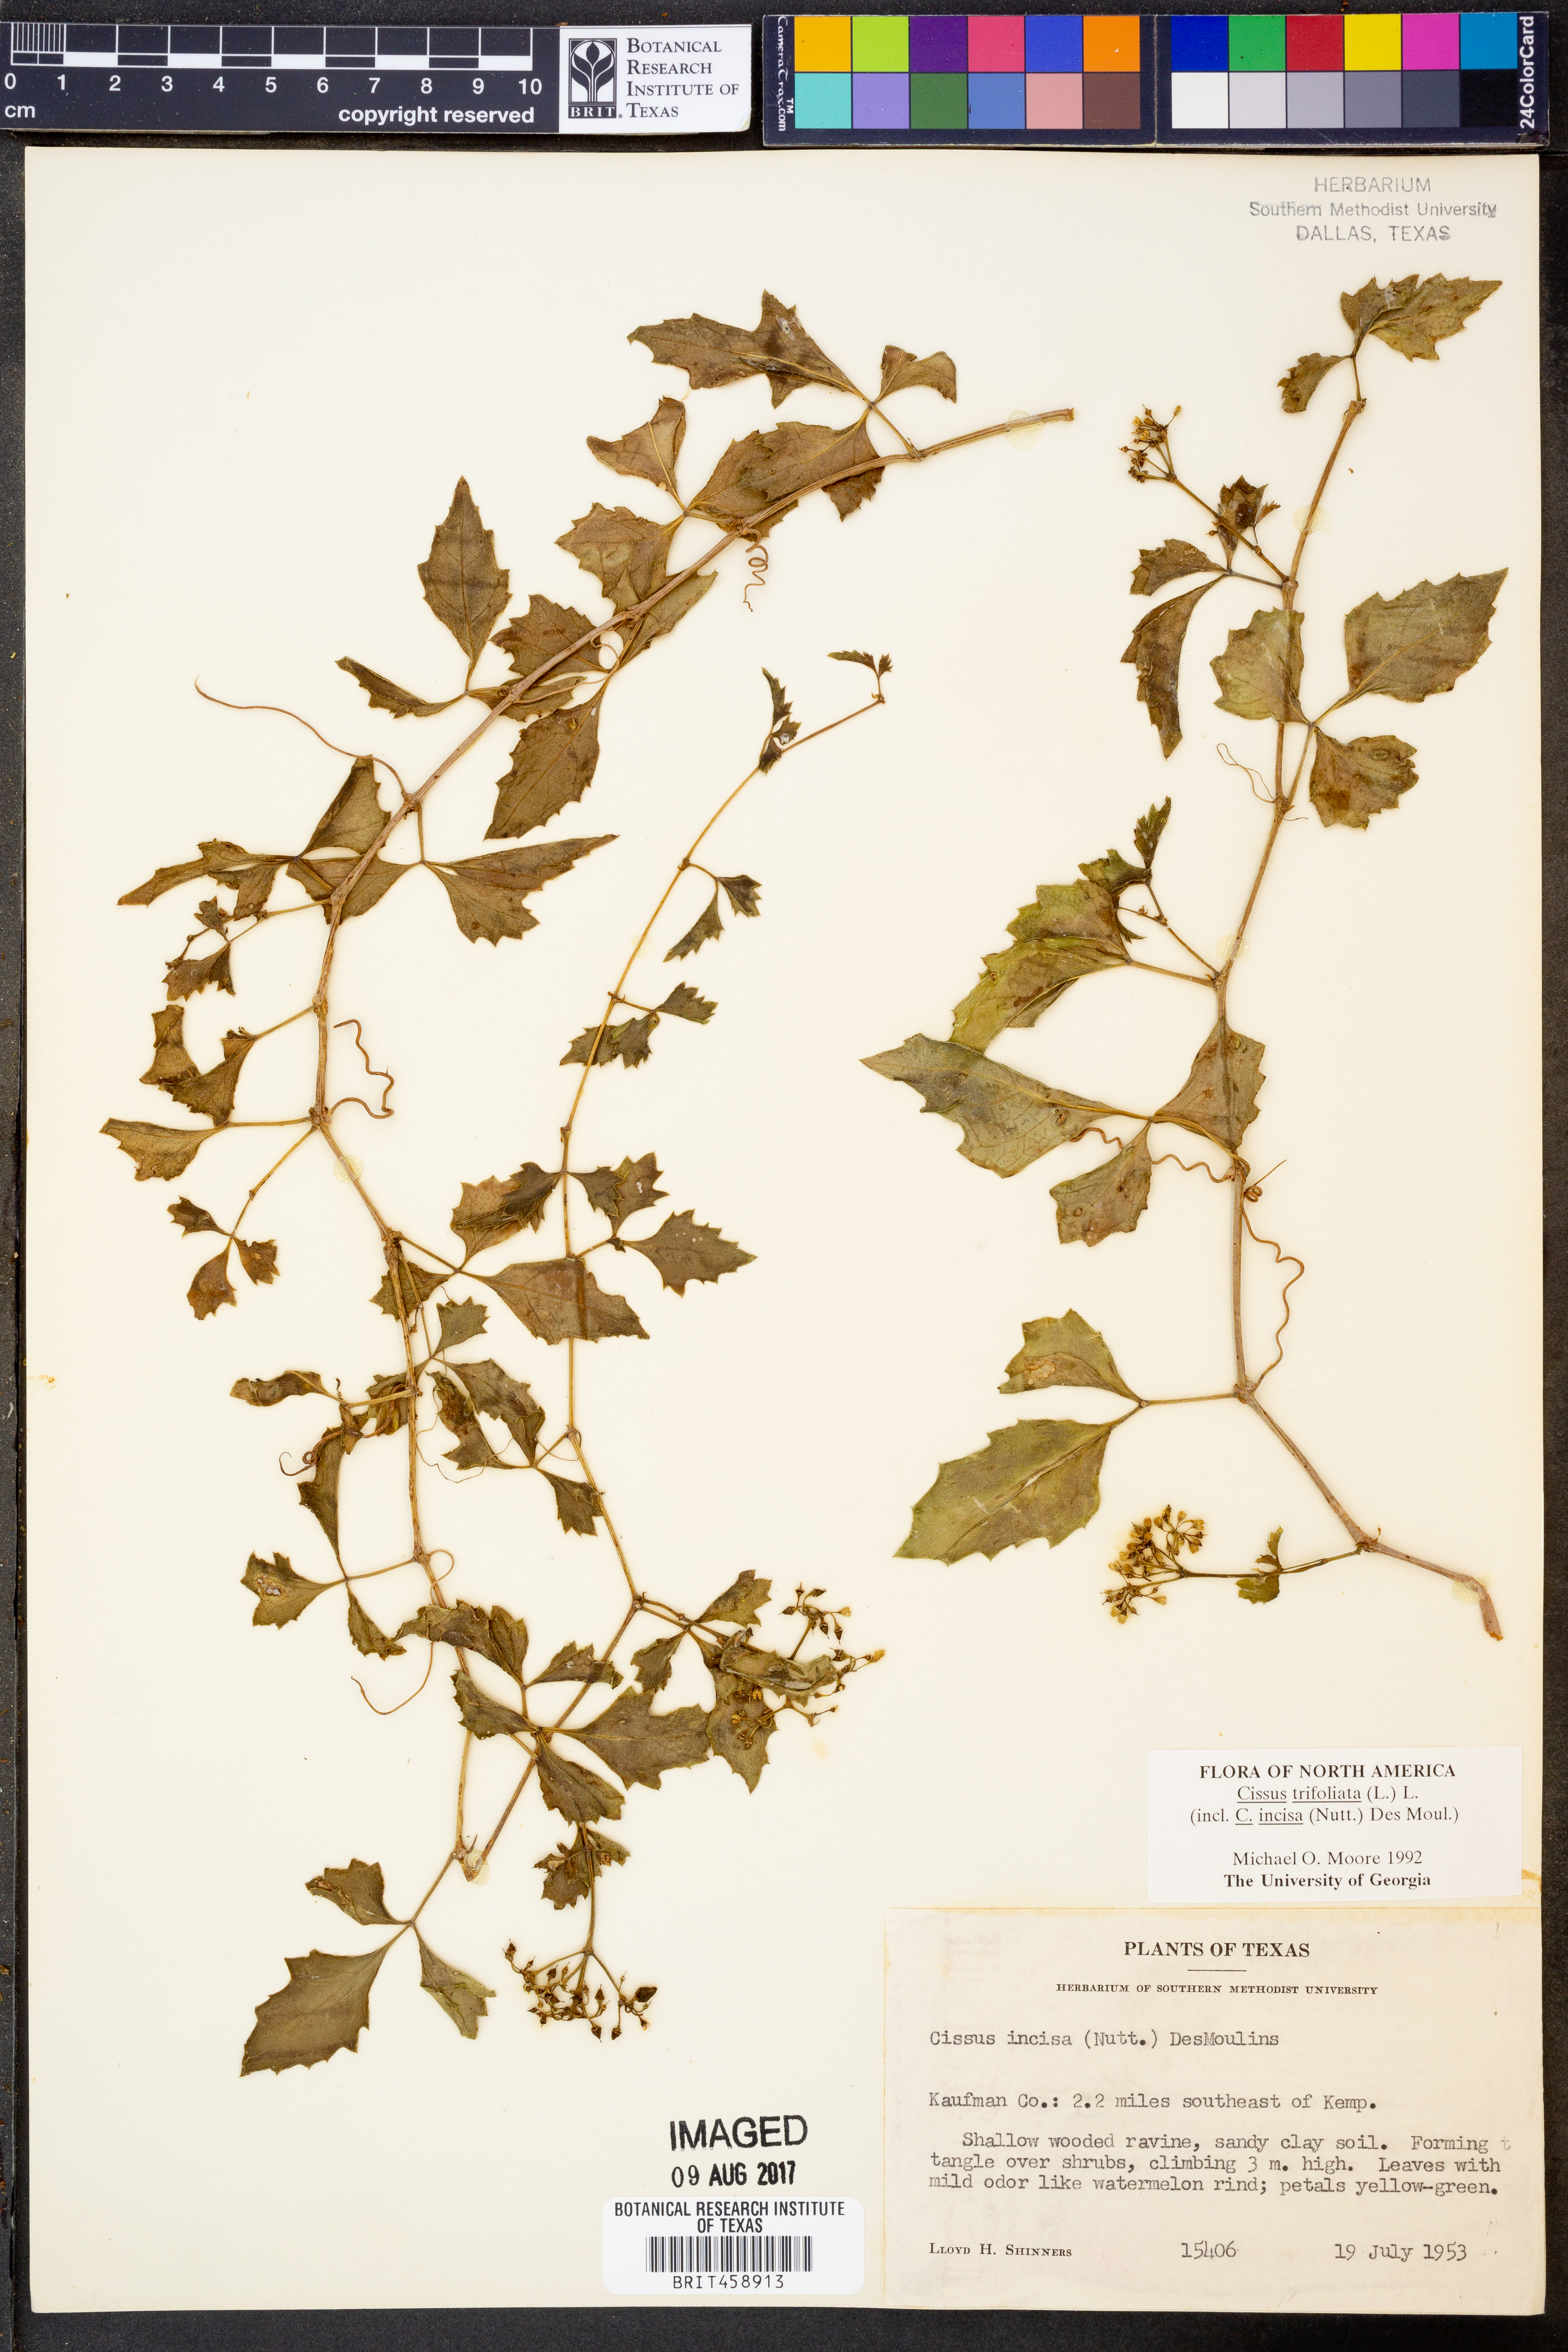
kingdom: Plantae
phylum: Tracheophyta
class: Magnoliopsida
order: Vitales
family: Vitaceae
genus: Cissus
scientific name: Cissus trifoliata
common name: Vine-sorrel
